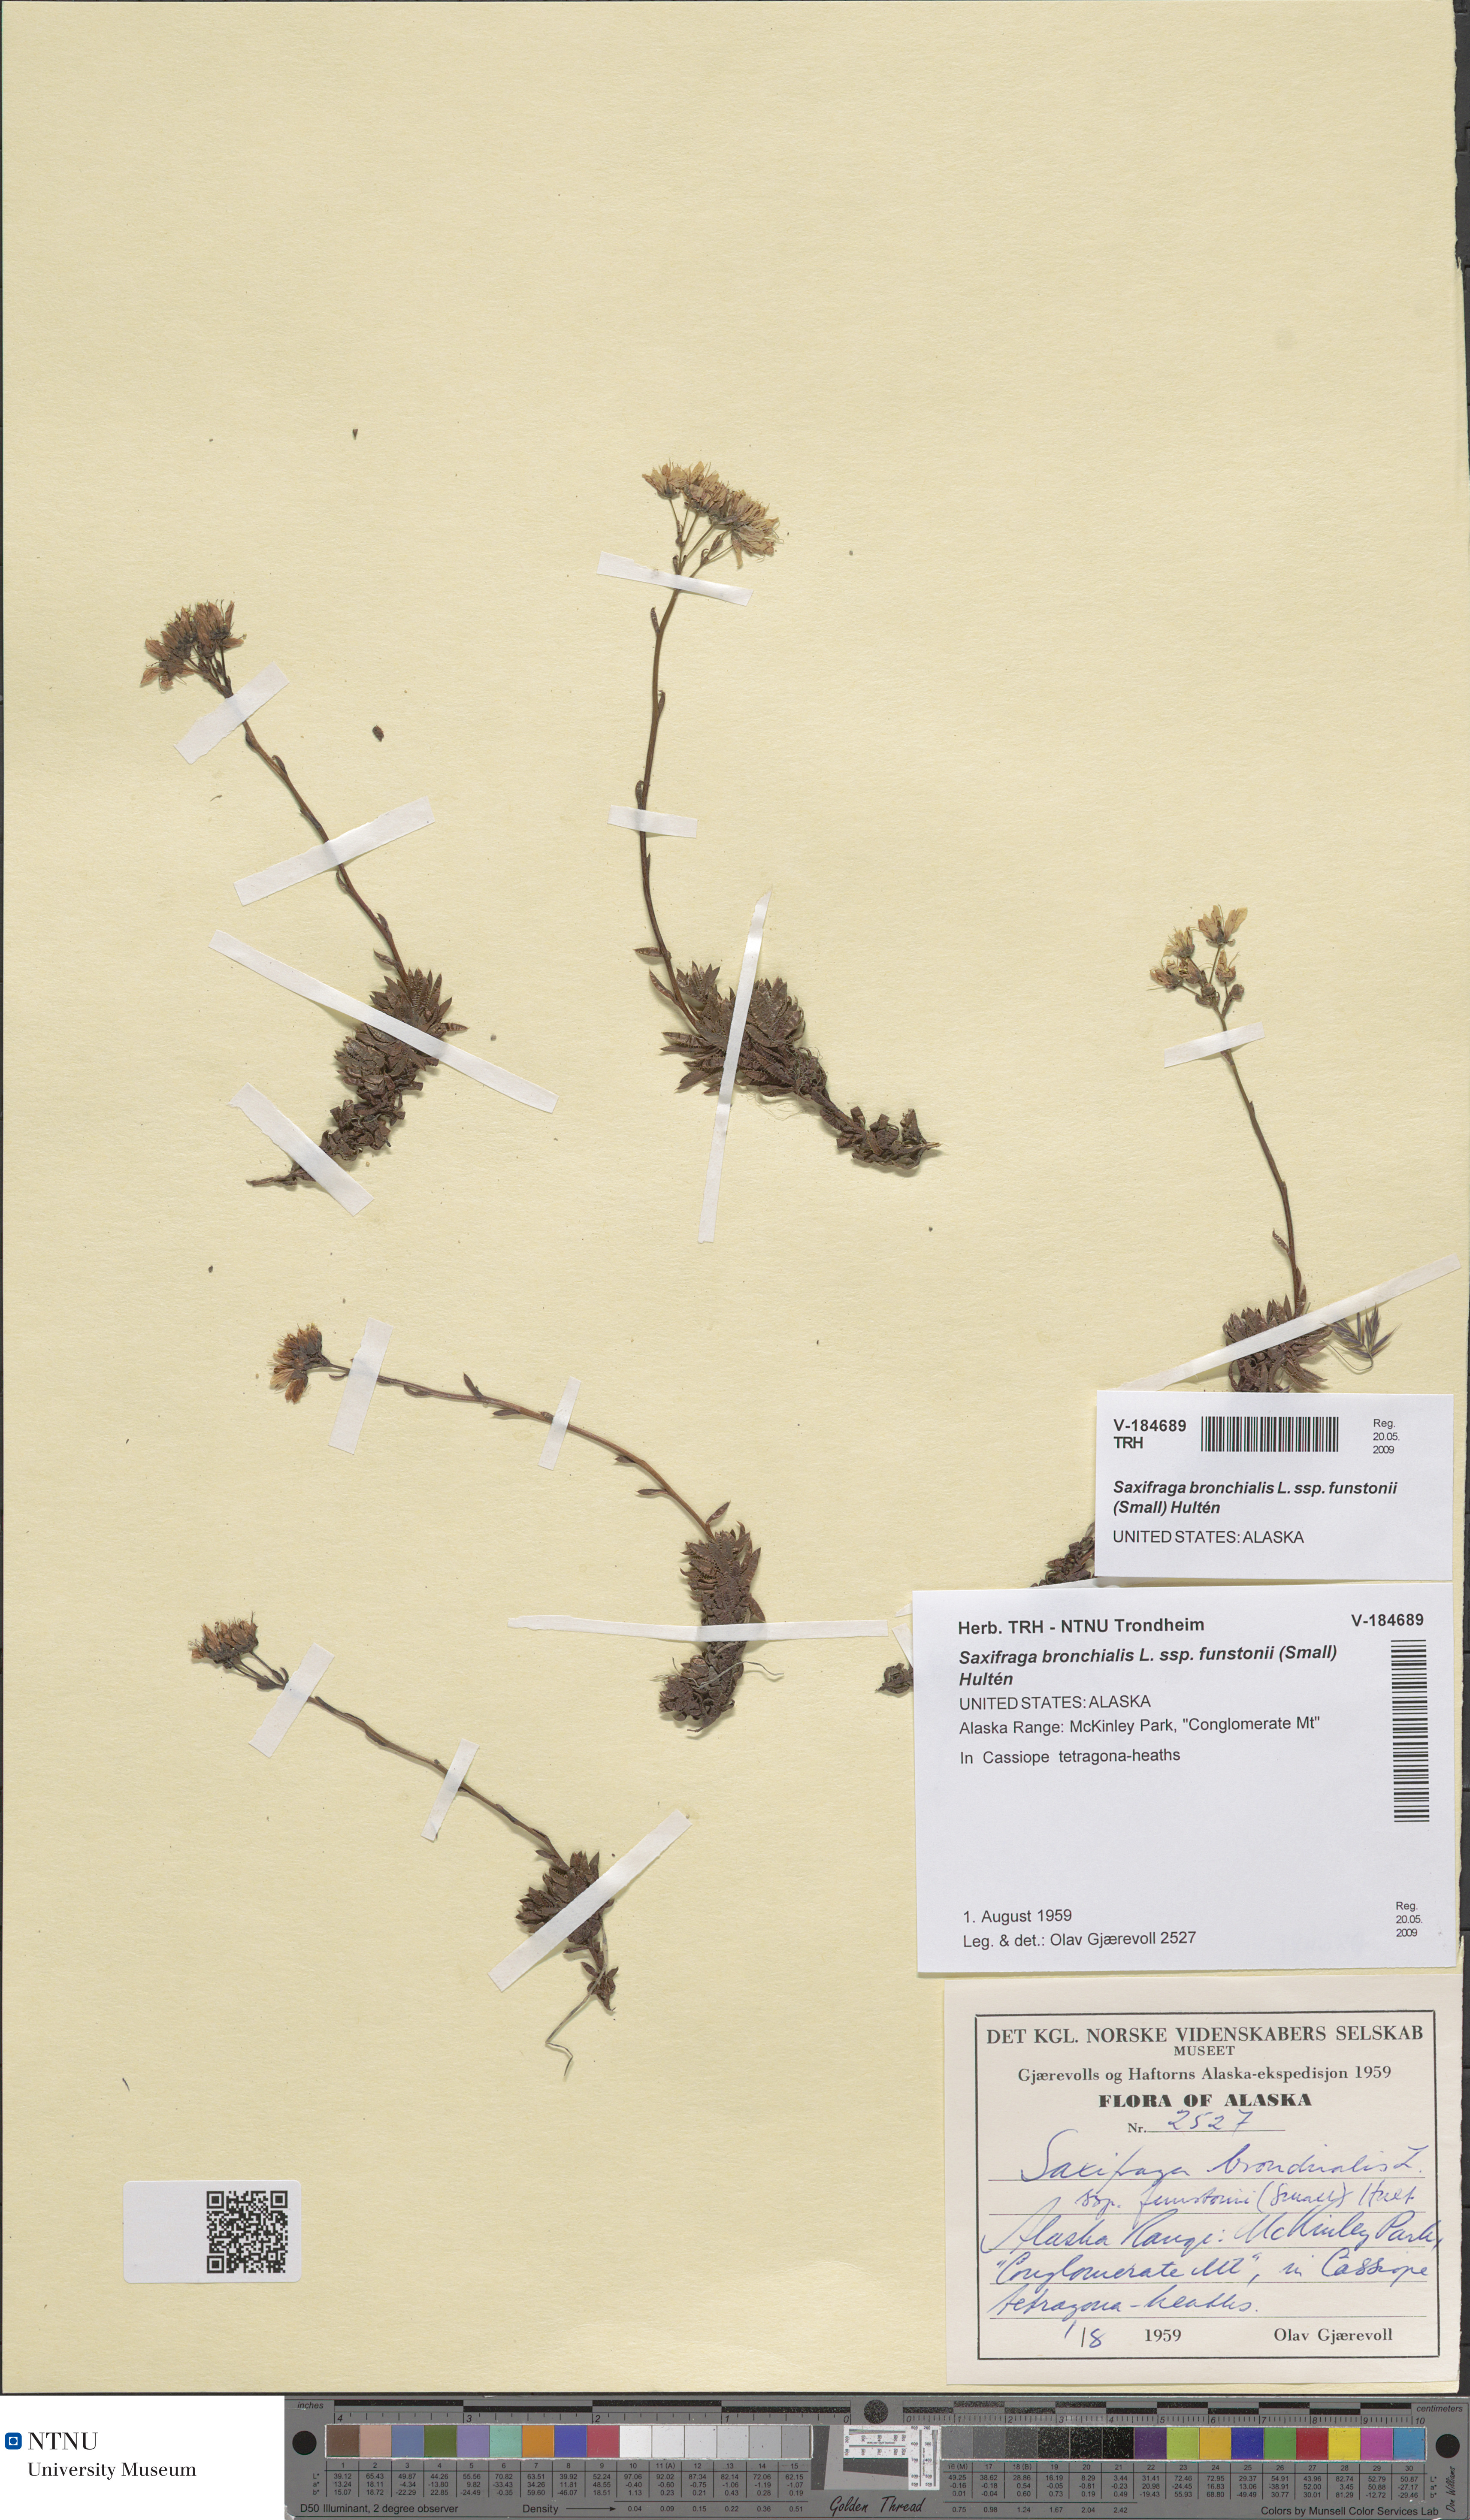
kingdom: Plantae
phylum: Tracheophyta
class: Magnoliopsida
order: Saxifragales
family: Saxifragaceae
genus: Saxifraga
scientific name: Saxifraga bronchialis
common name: Matted saxifrage
